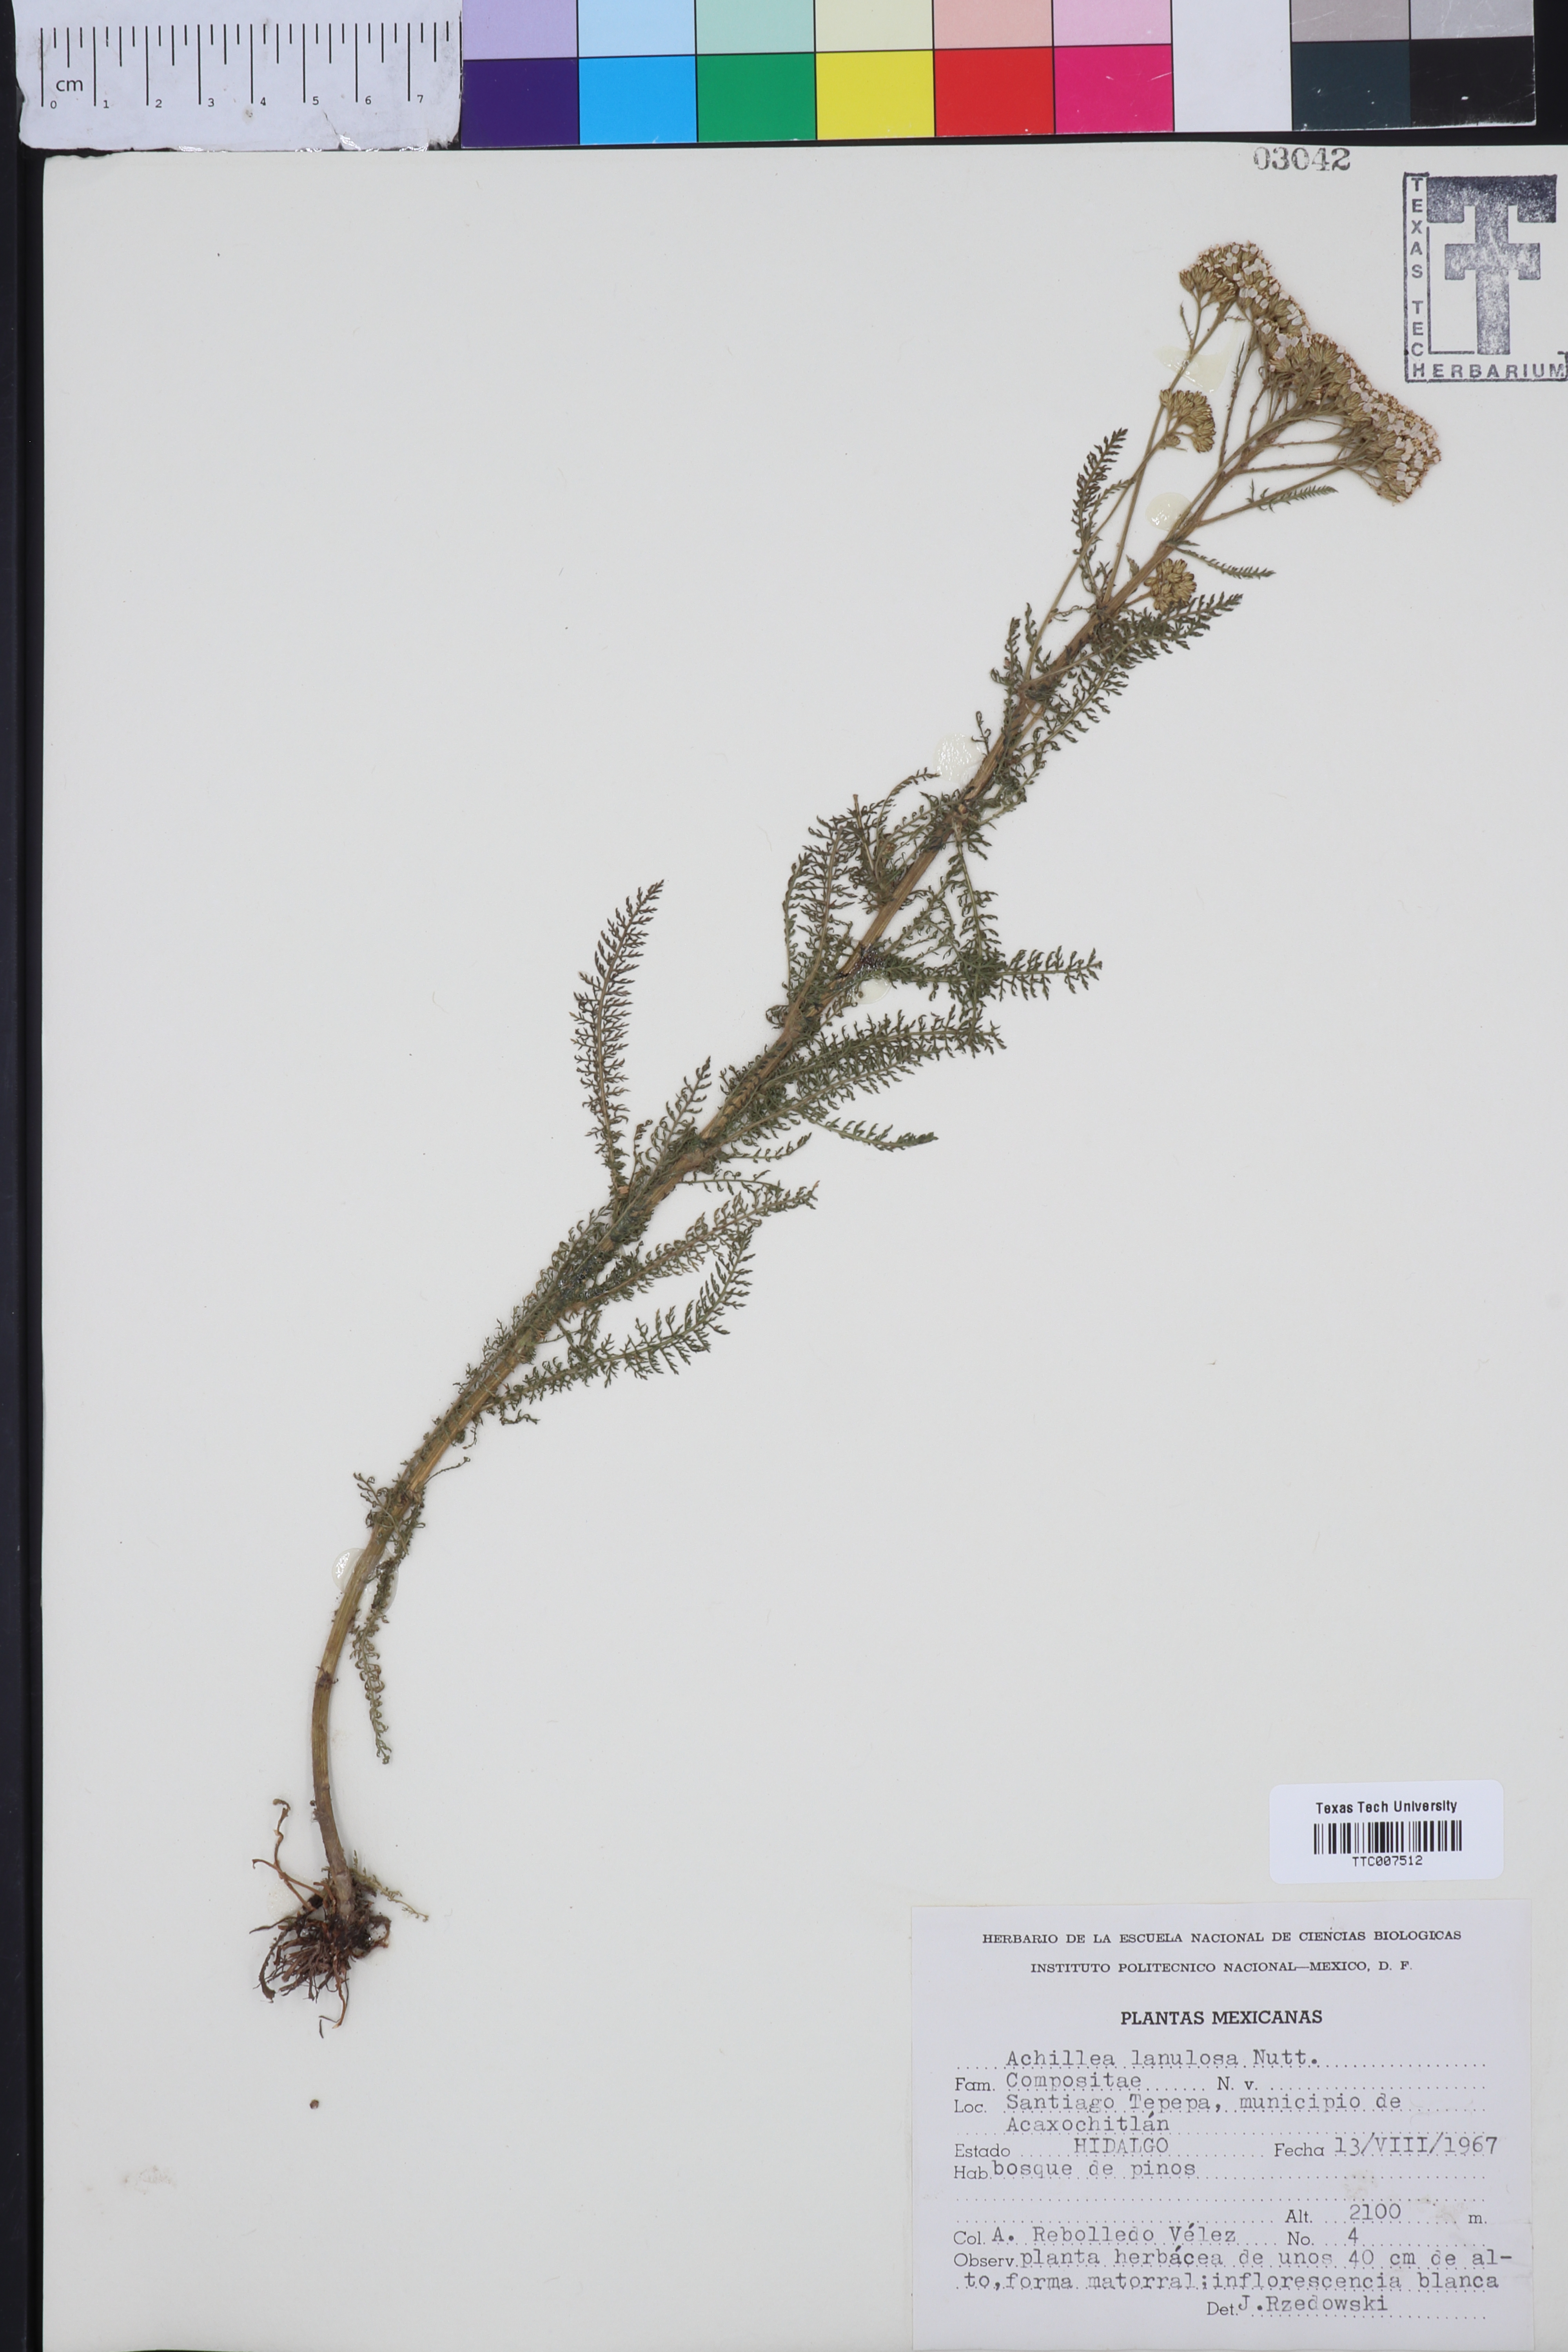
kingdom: Plantae
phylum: Tracheophyta
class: Magnoliopsida
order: Asterales
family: Asteraceae
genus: Achillea
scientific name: Achillea millefolium
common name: Yarrow
